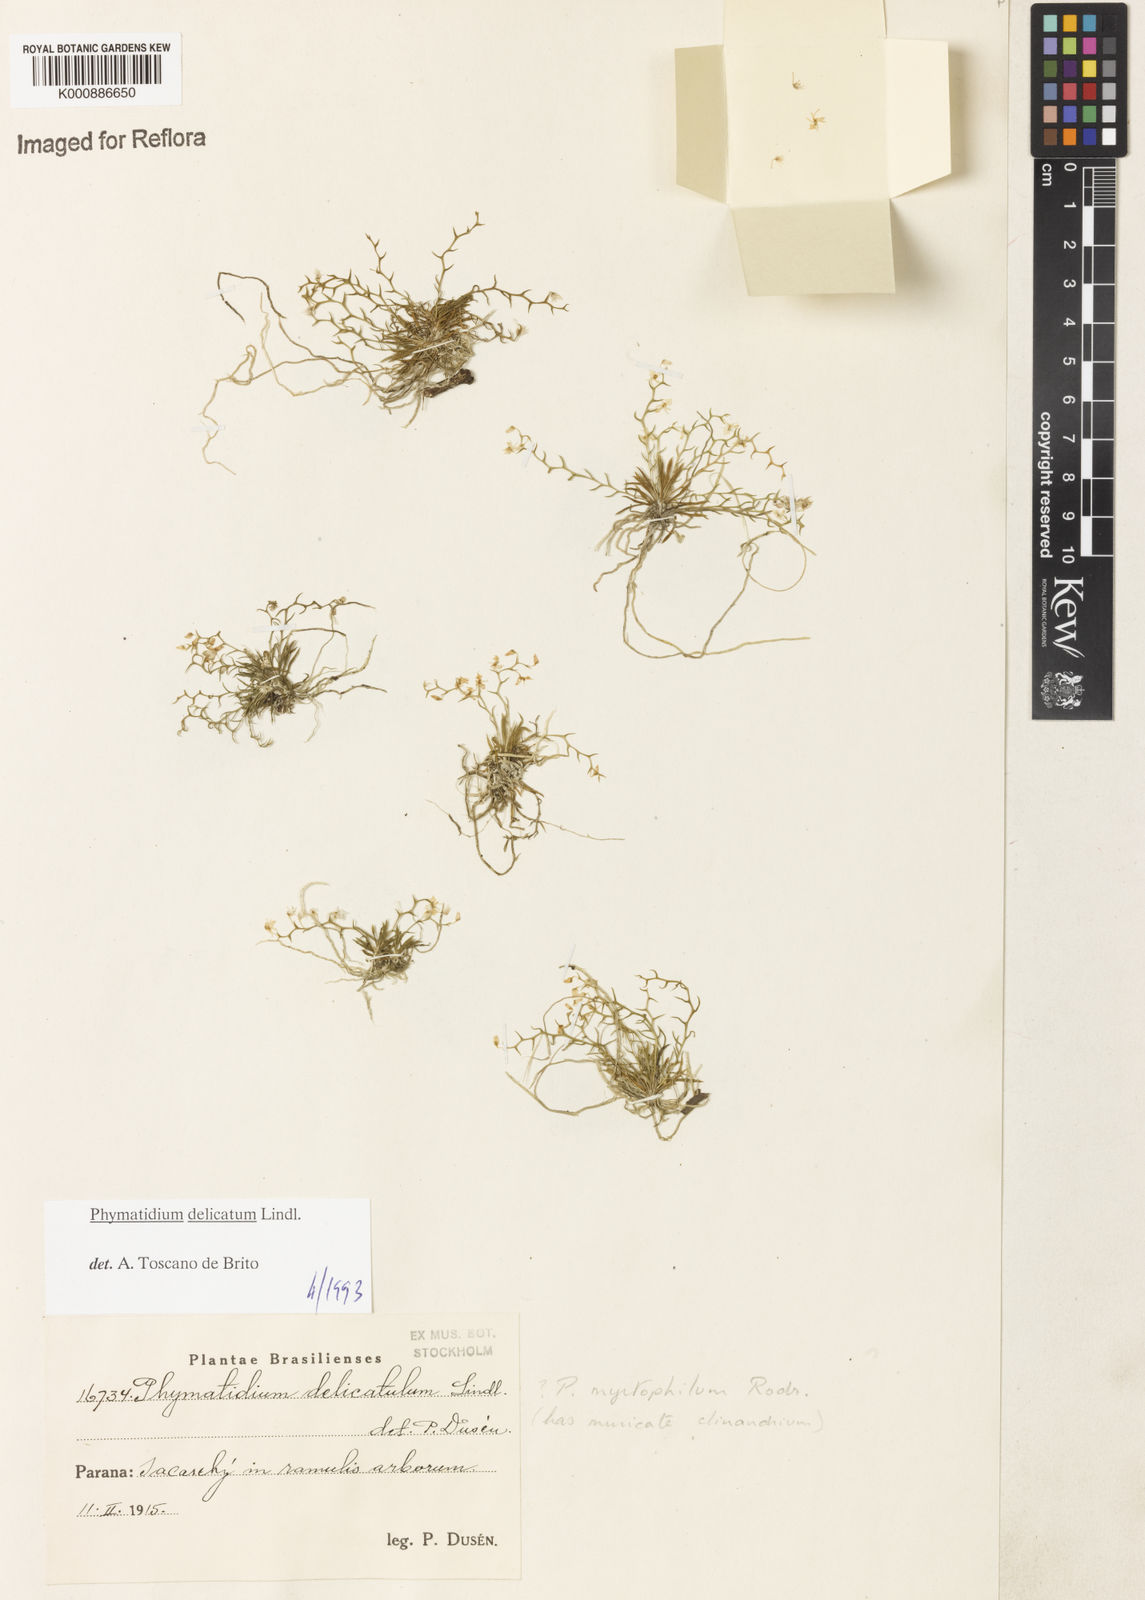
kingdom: Plantae
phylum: Tracheophyta
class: Liliopsida
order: Asparagales
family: Orchidaceae
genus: Phymatidium
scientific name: Phymatidium delicatulum
